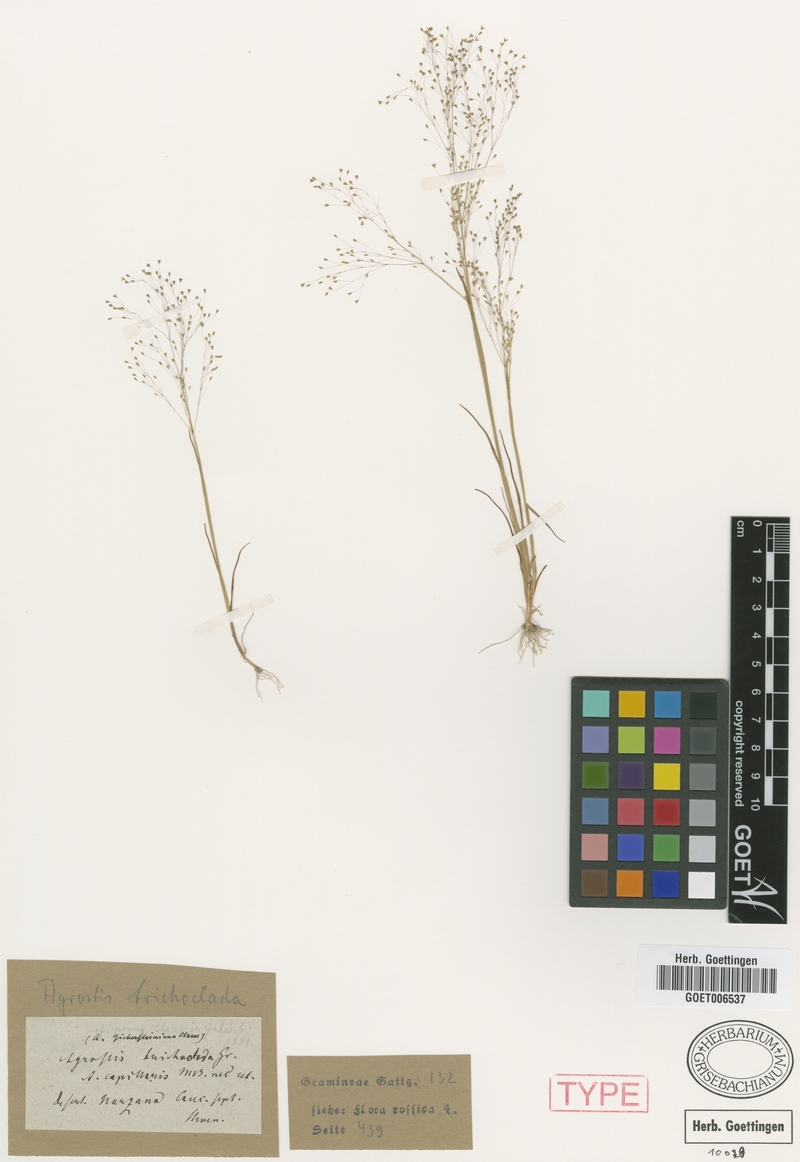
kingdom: Plantae
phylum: Tracheophyta
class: Liliopsida
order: Poales
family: Poaceae
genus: Colpodium
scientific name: Colpodium biebersteinianum
